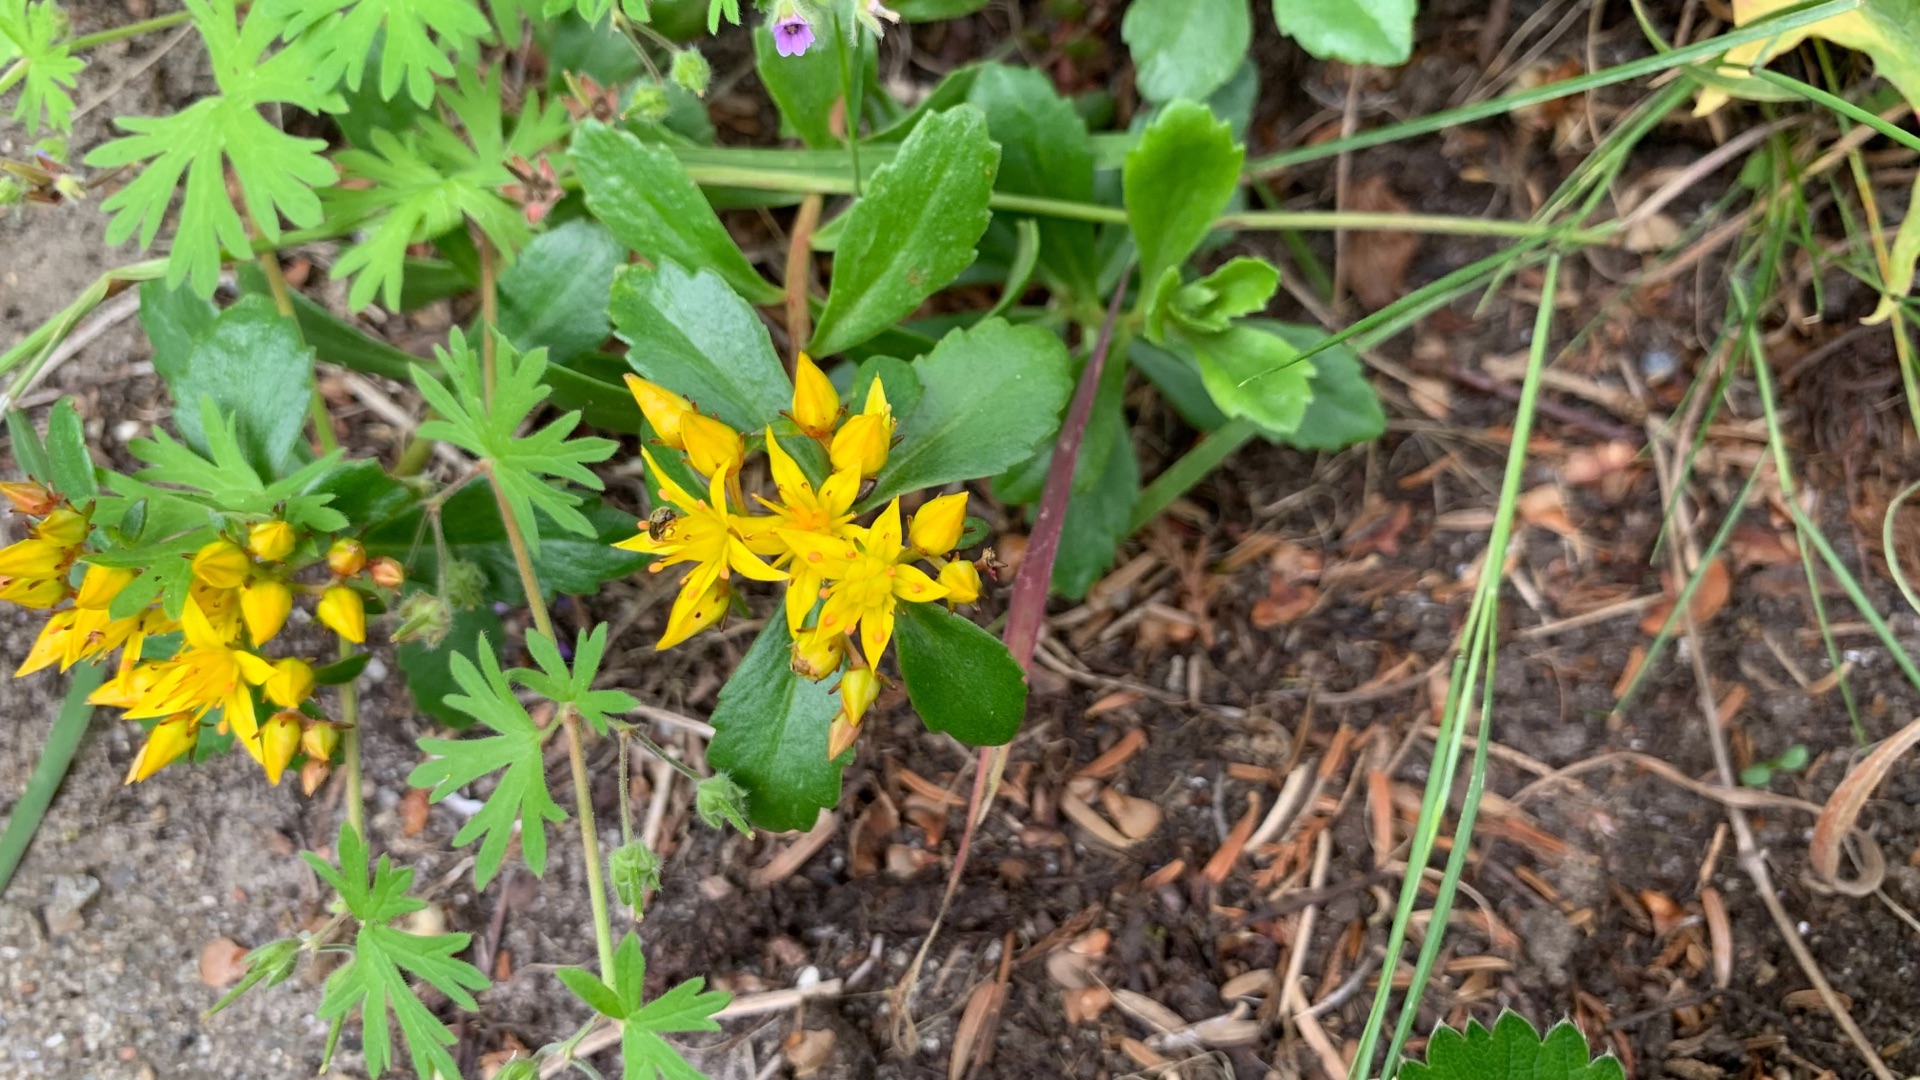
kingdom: Plantae
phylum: Tracheophyta
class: Magnoliopsida
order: Saxifragales
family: Crassulaceae
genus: Phedimus
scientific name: Phedimus aizoon
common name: Asiatisk stenurt
